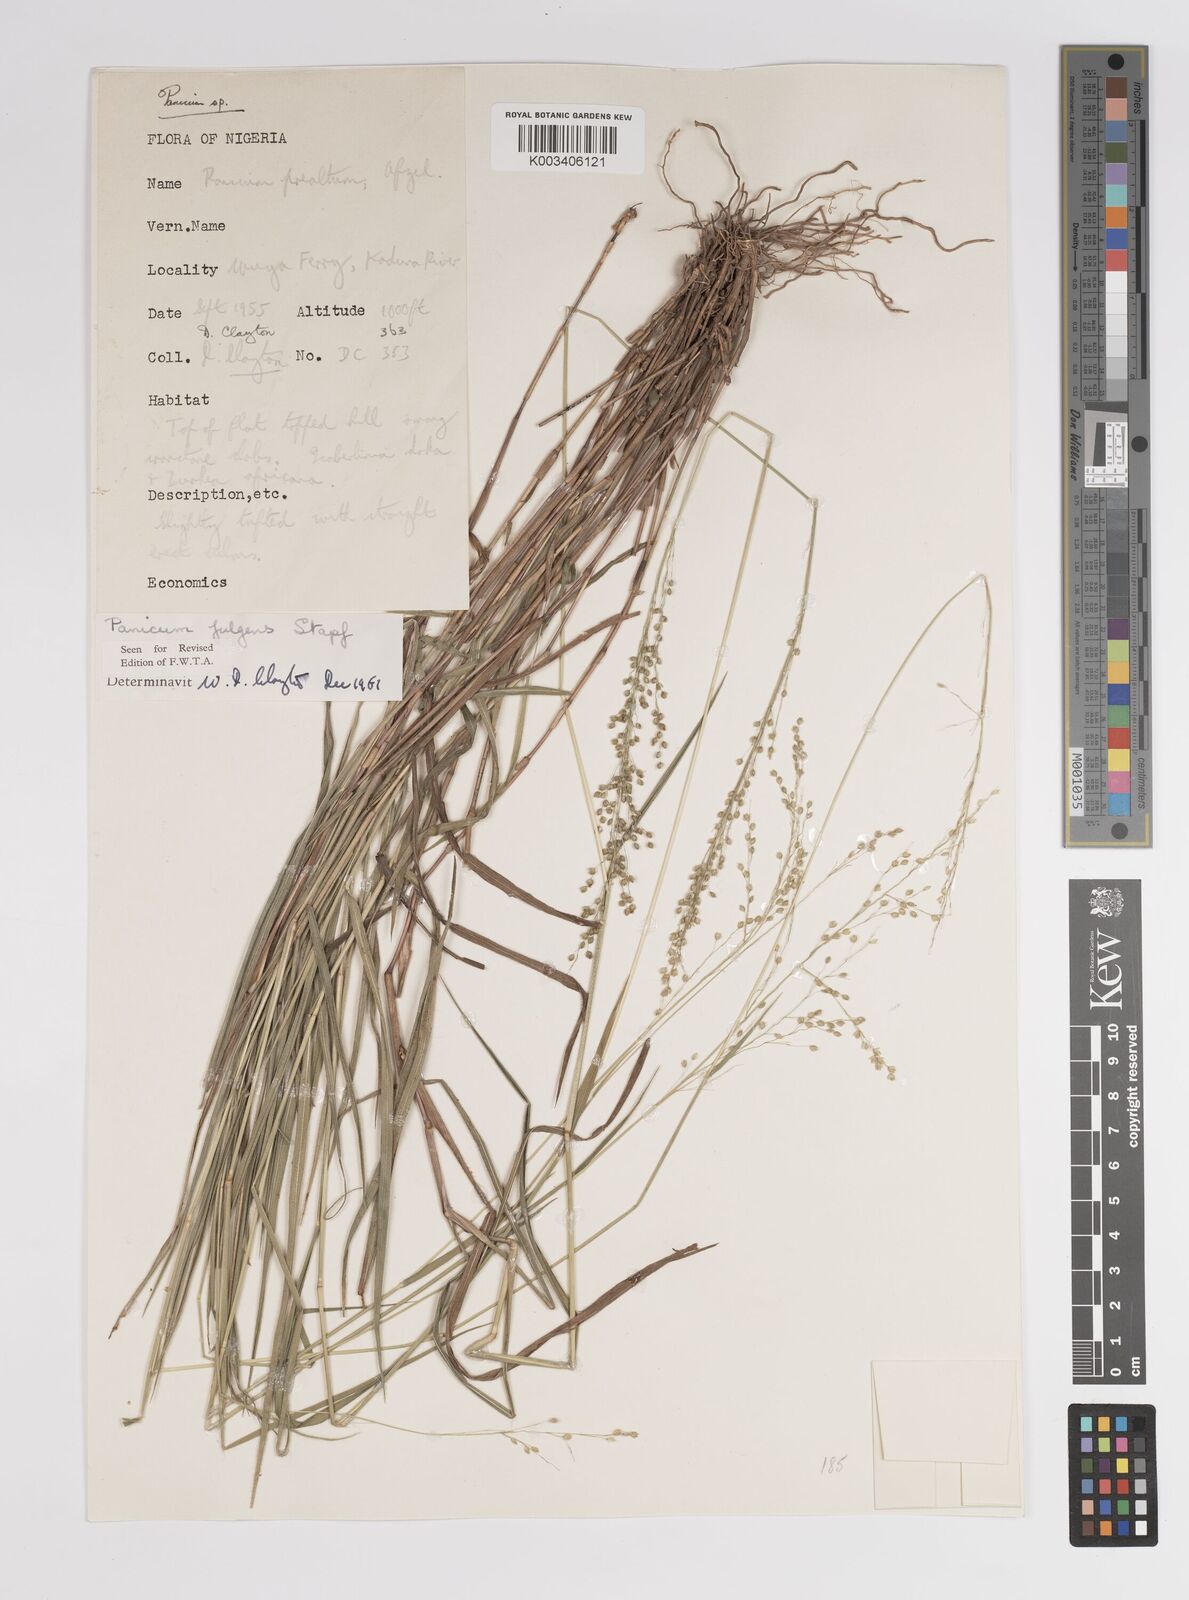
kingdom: Plantae
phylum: Tracheophyta
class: Liliopsida
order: Poales
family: Poaceae
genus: Trichanthecium
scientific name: Trichanthecium nervatum
